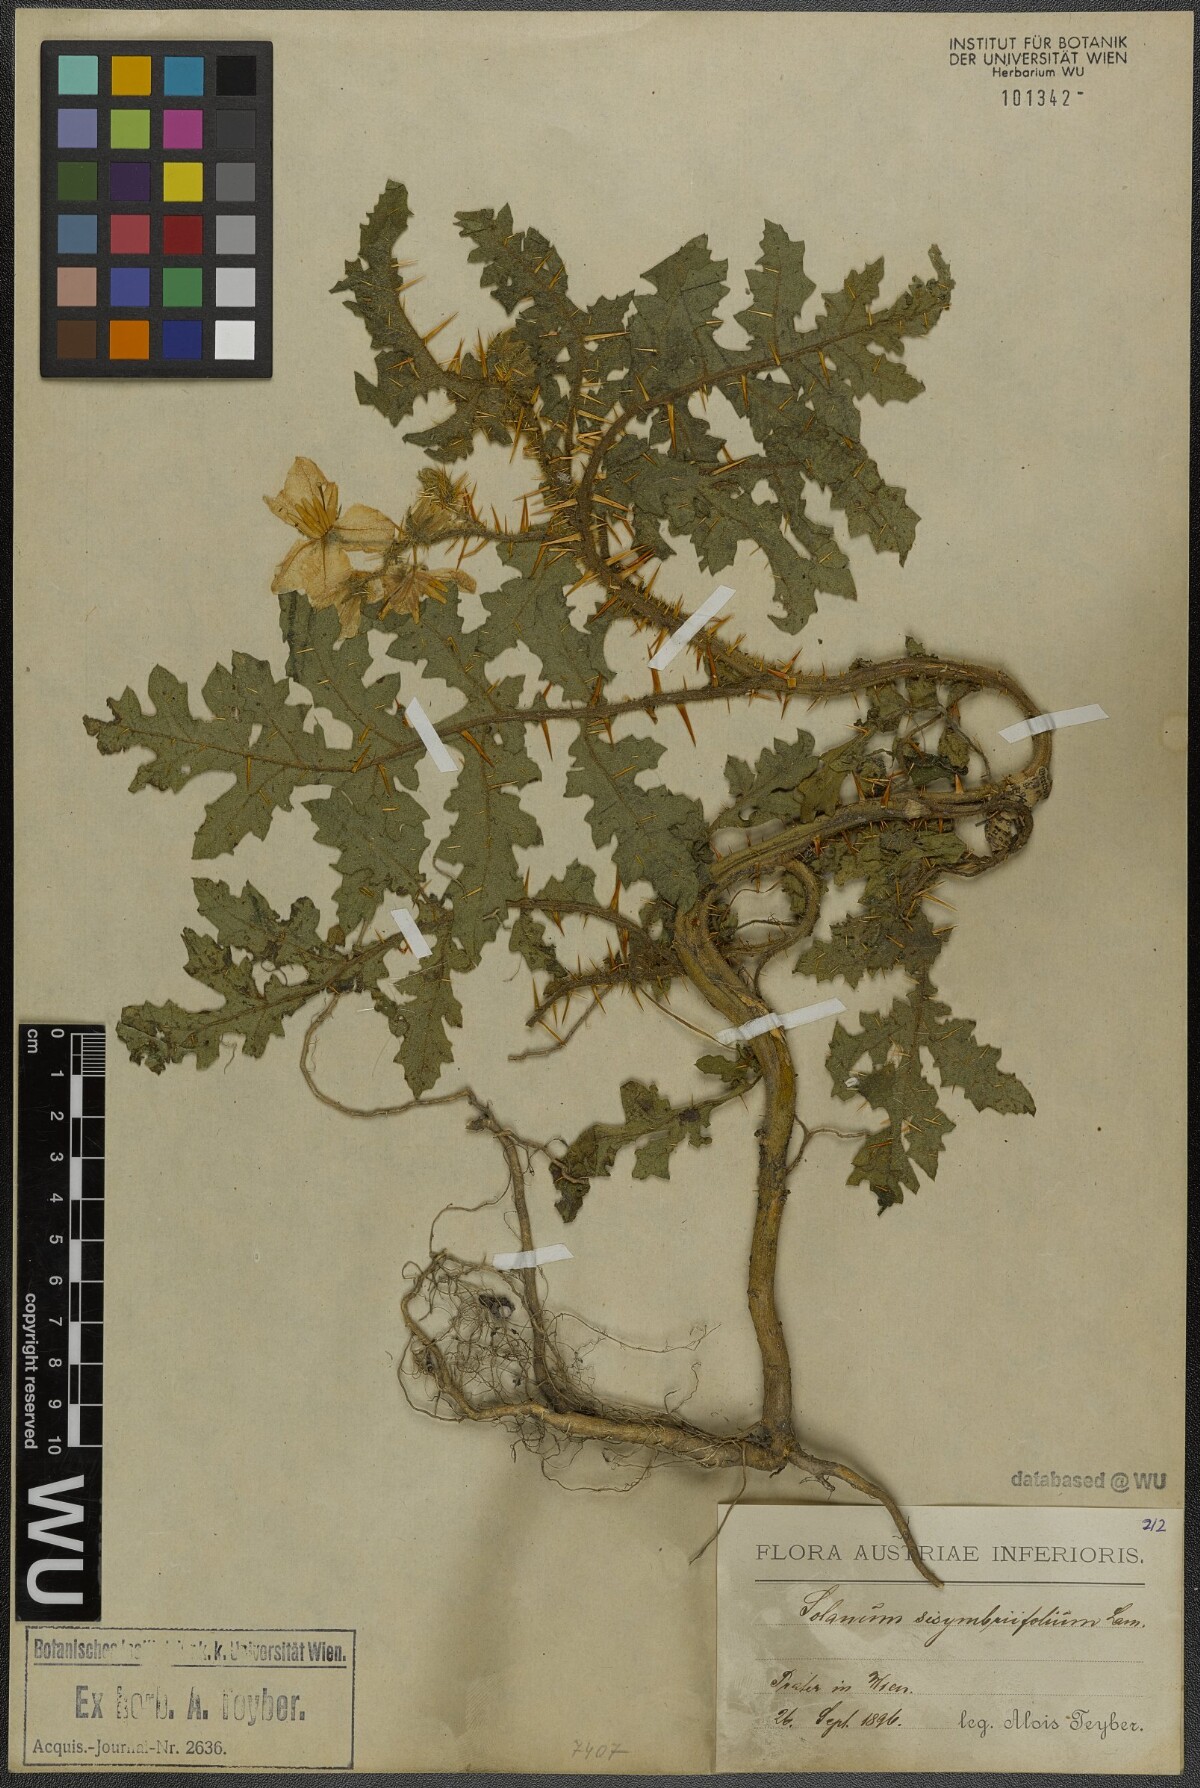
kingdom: Plantae
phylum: Tracheophyta
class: Magnoliopsida
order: Solanales
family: Solanaceae
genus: Solanum
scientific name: Solanum sisymbriifolium
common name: Red buffalo-bur
